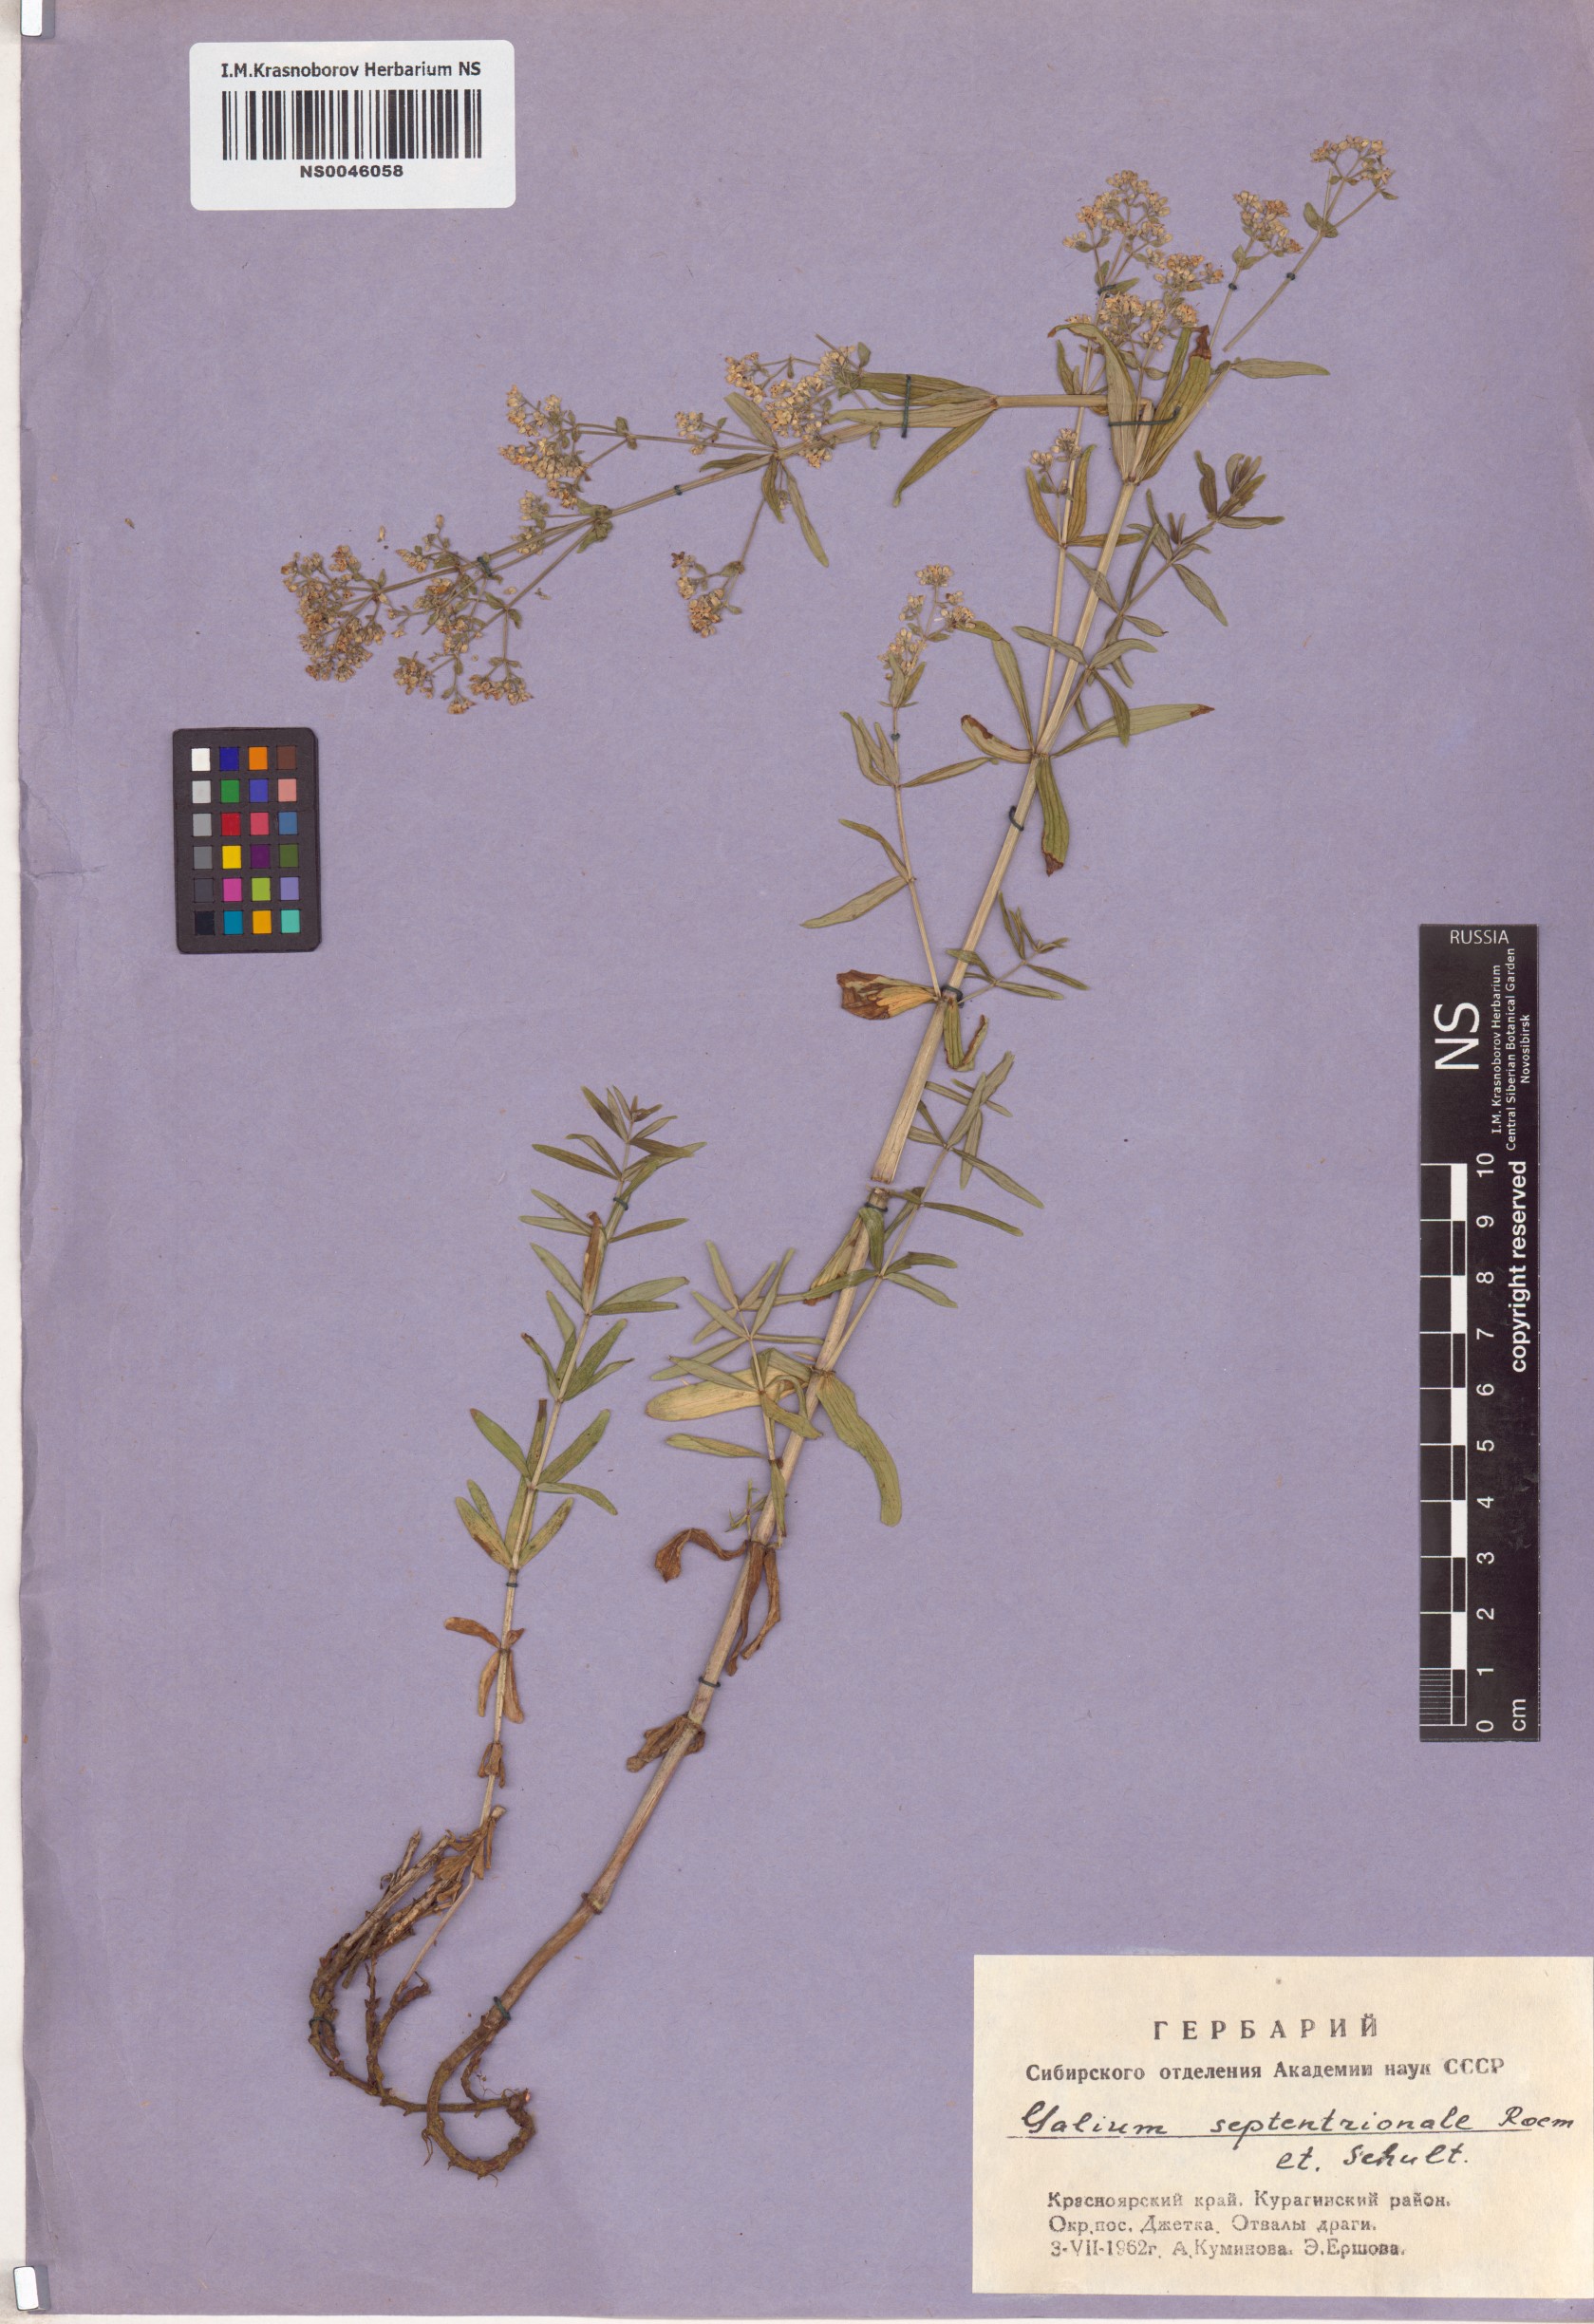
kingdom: Plantae
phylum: Tracheophyta
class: Magnoliopsida
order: Gentianales
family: Rubiaceae
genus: Galium
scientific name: Galium boreale
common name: Northern bedstraw
